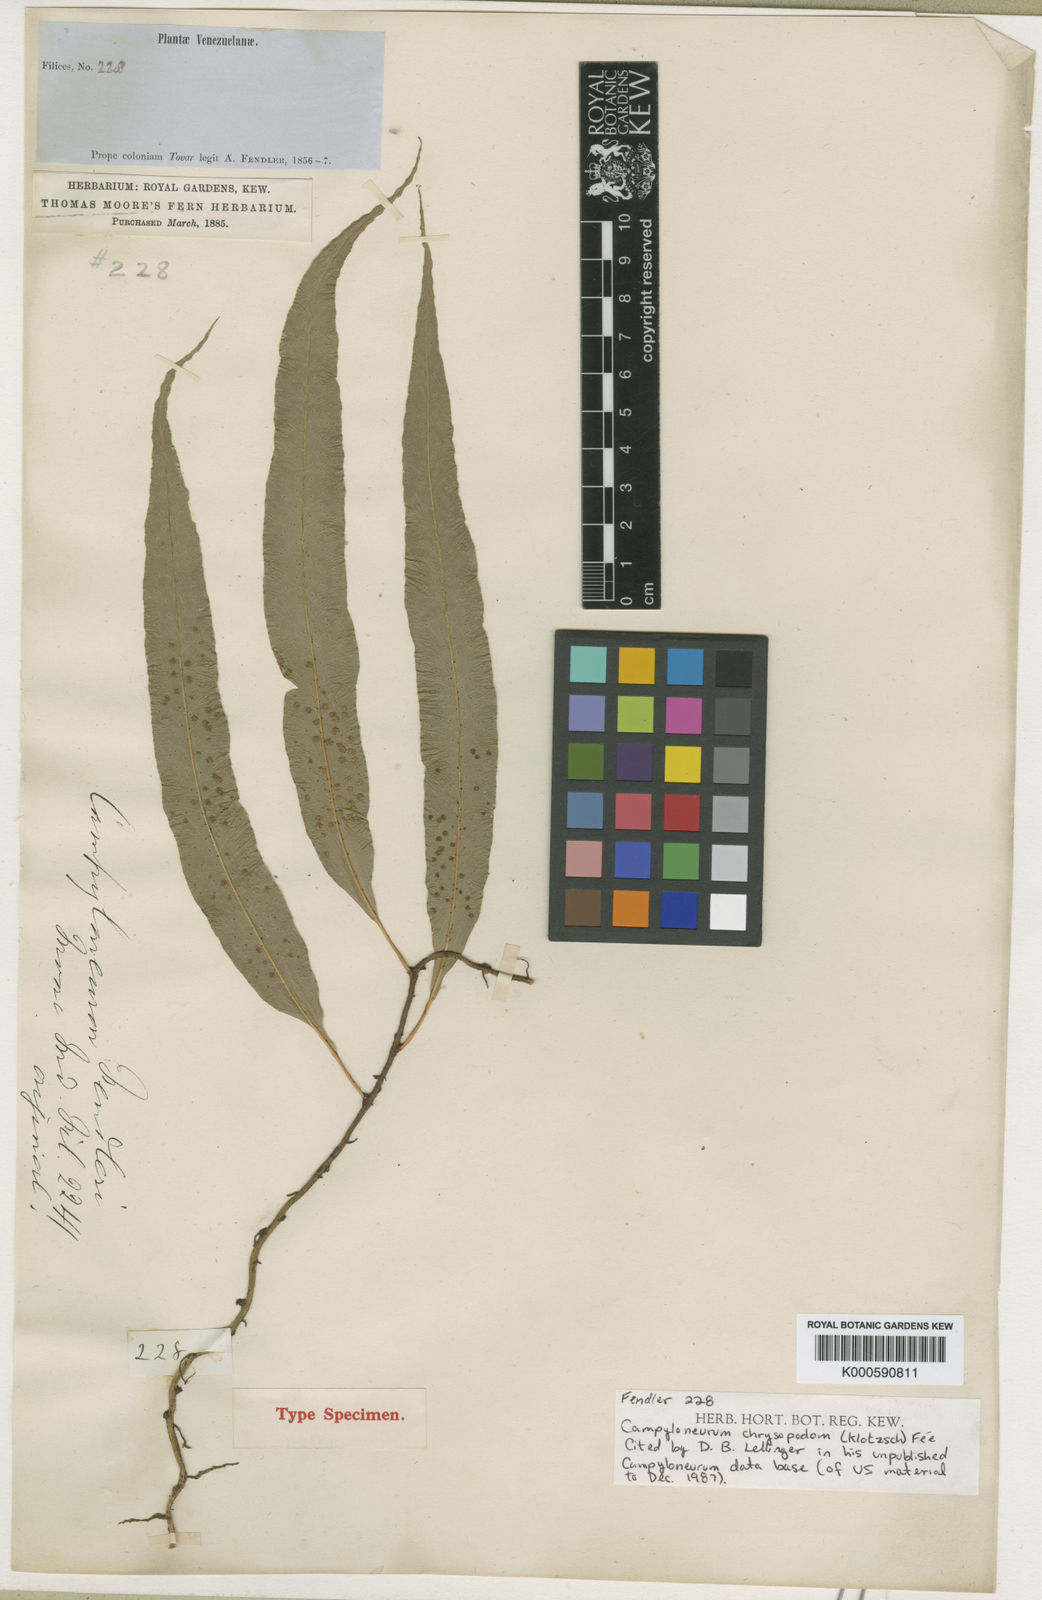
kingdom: Plantae
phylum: Tracheophyta
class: Polypodiopsida
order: Polypodiales
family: Polypodiaceae
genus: Campyloneurum
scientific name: Campyloneurum
